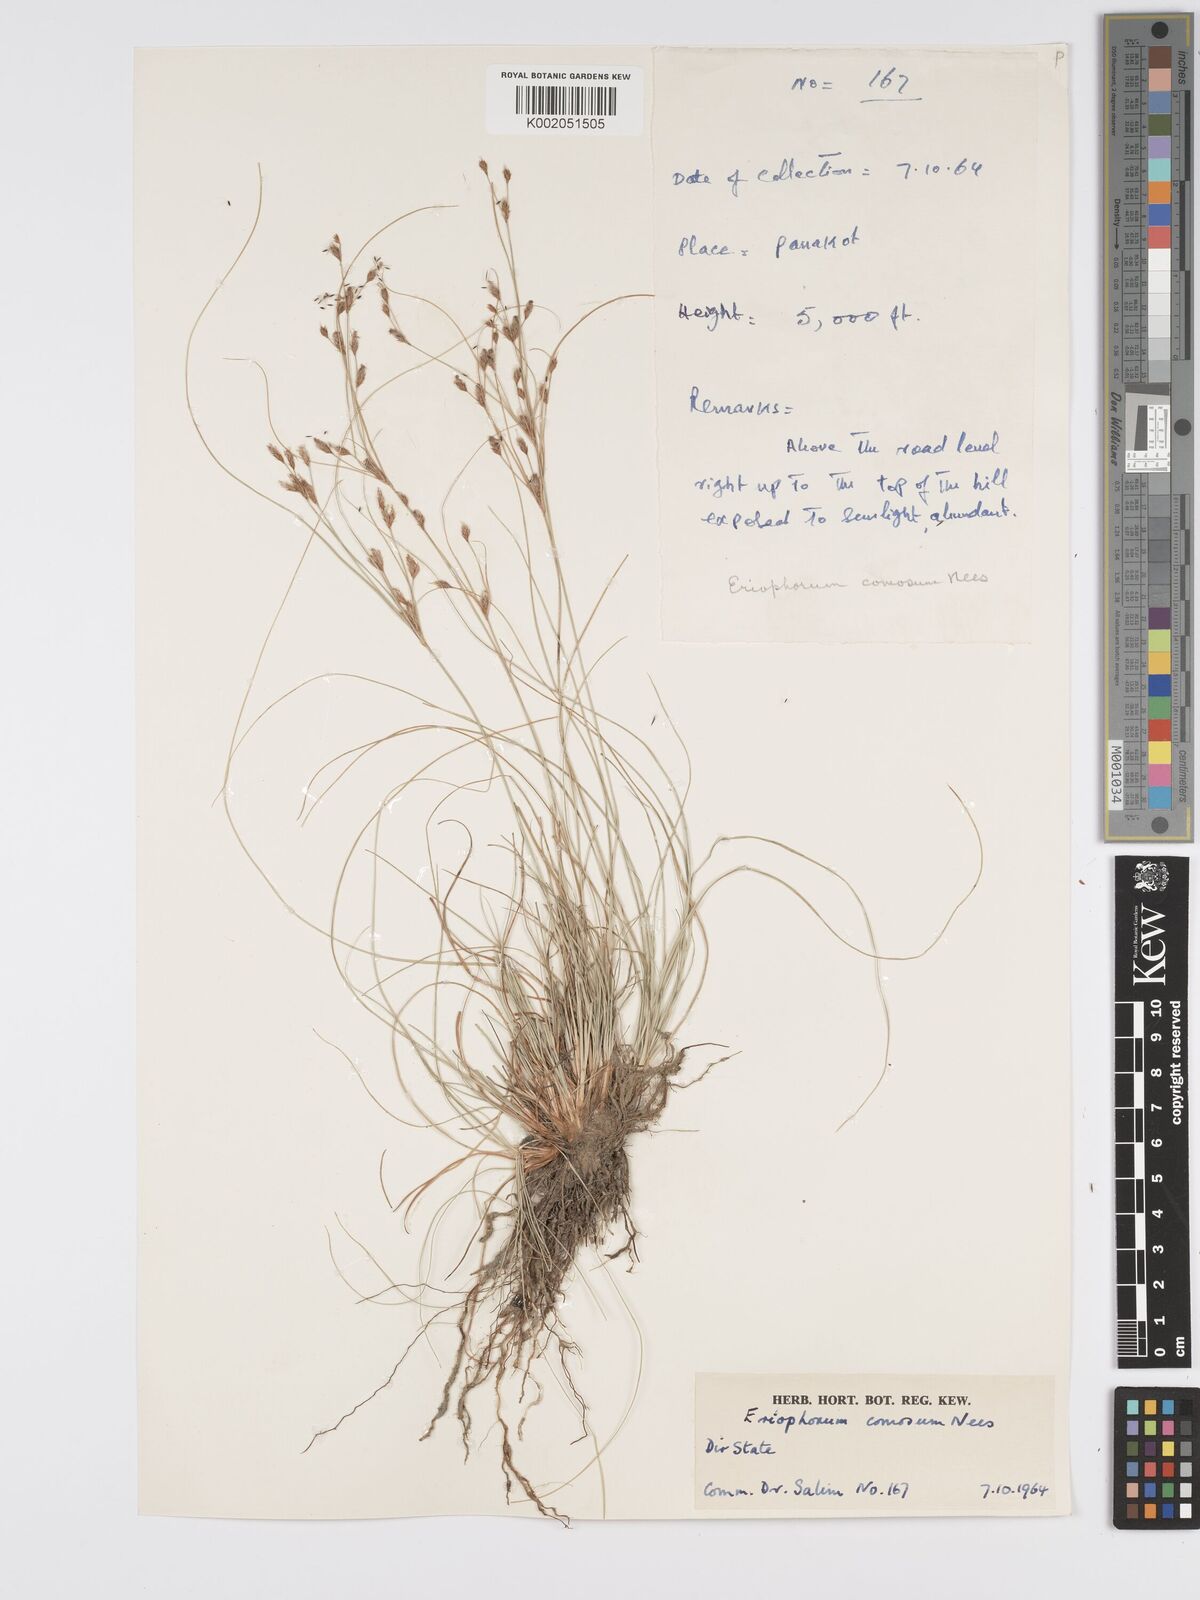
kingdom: Plantae
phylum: Tracheophyta
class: Liliopsida
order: Poales
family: Cyperaceae
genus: Erioscirpus
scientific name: Erioscirpus comosus
